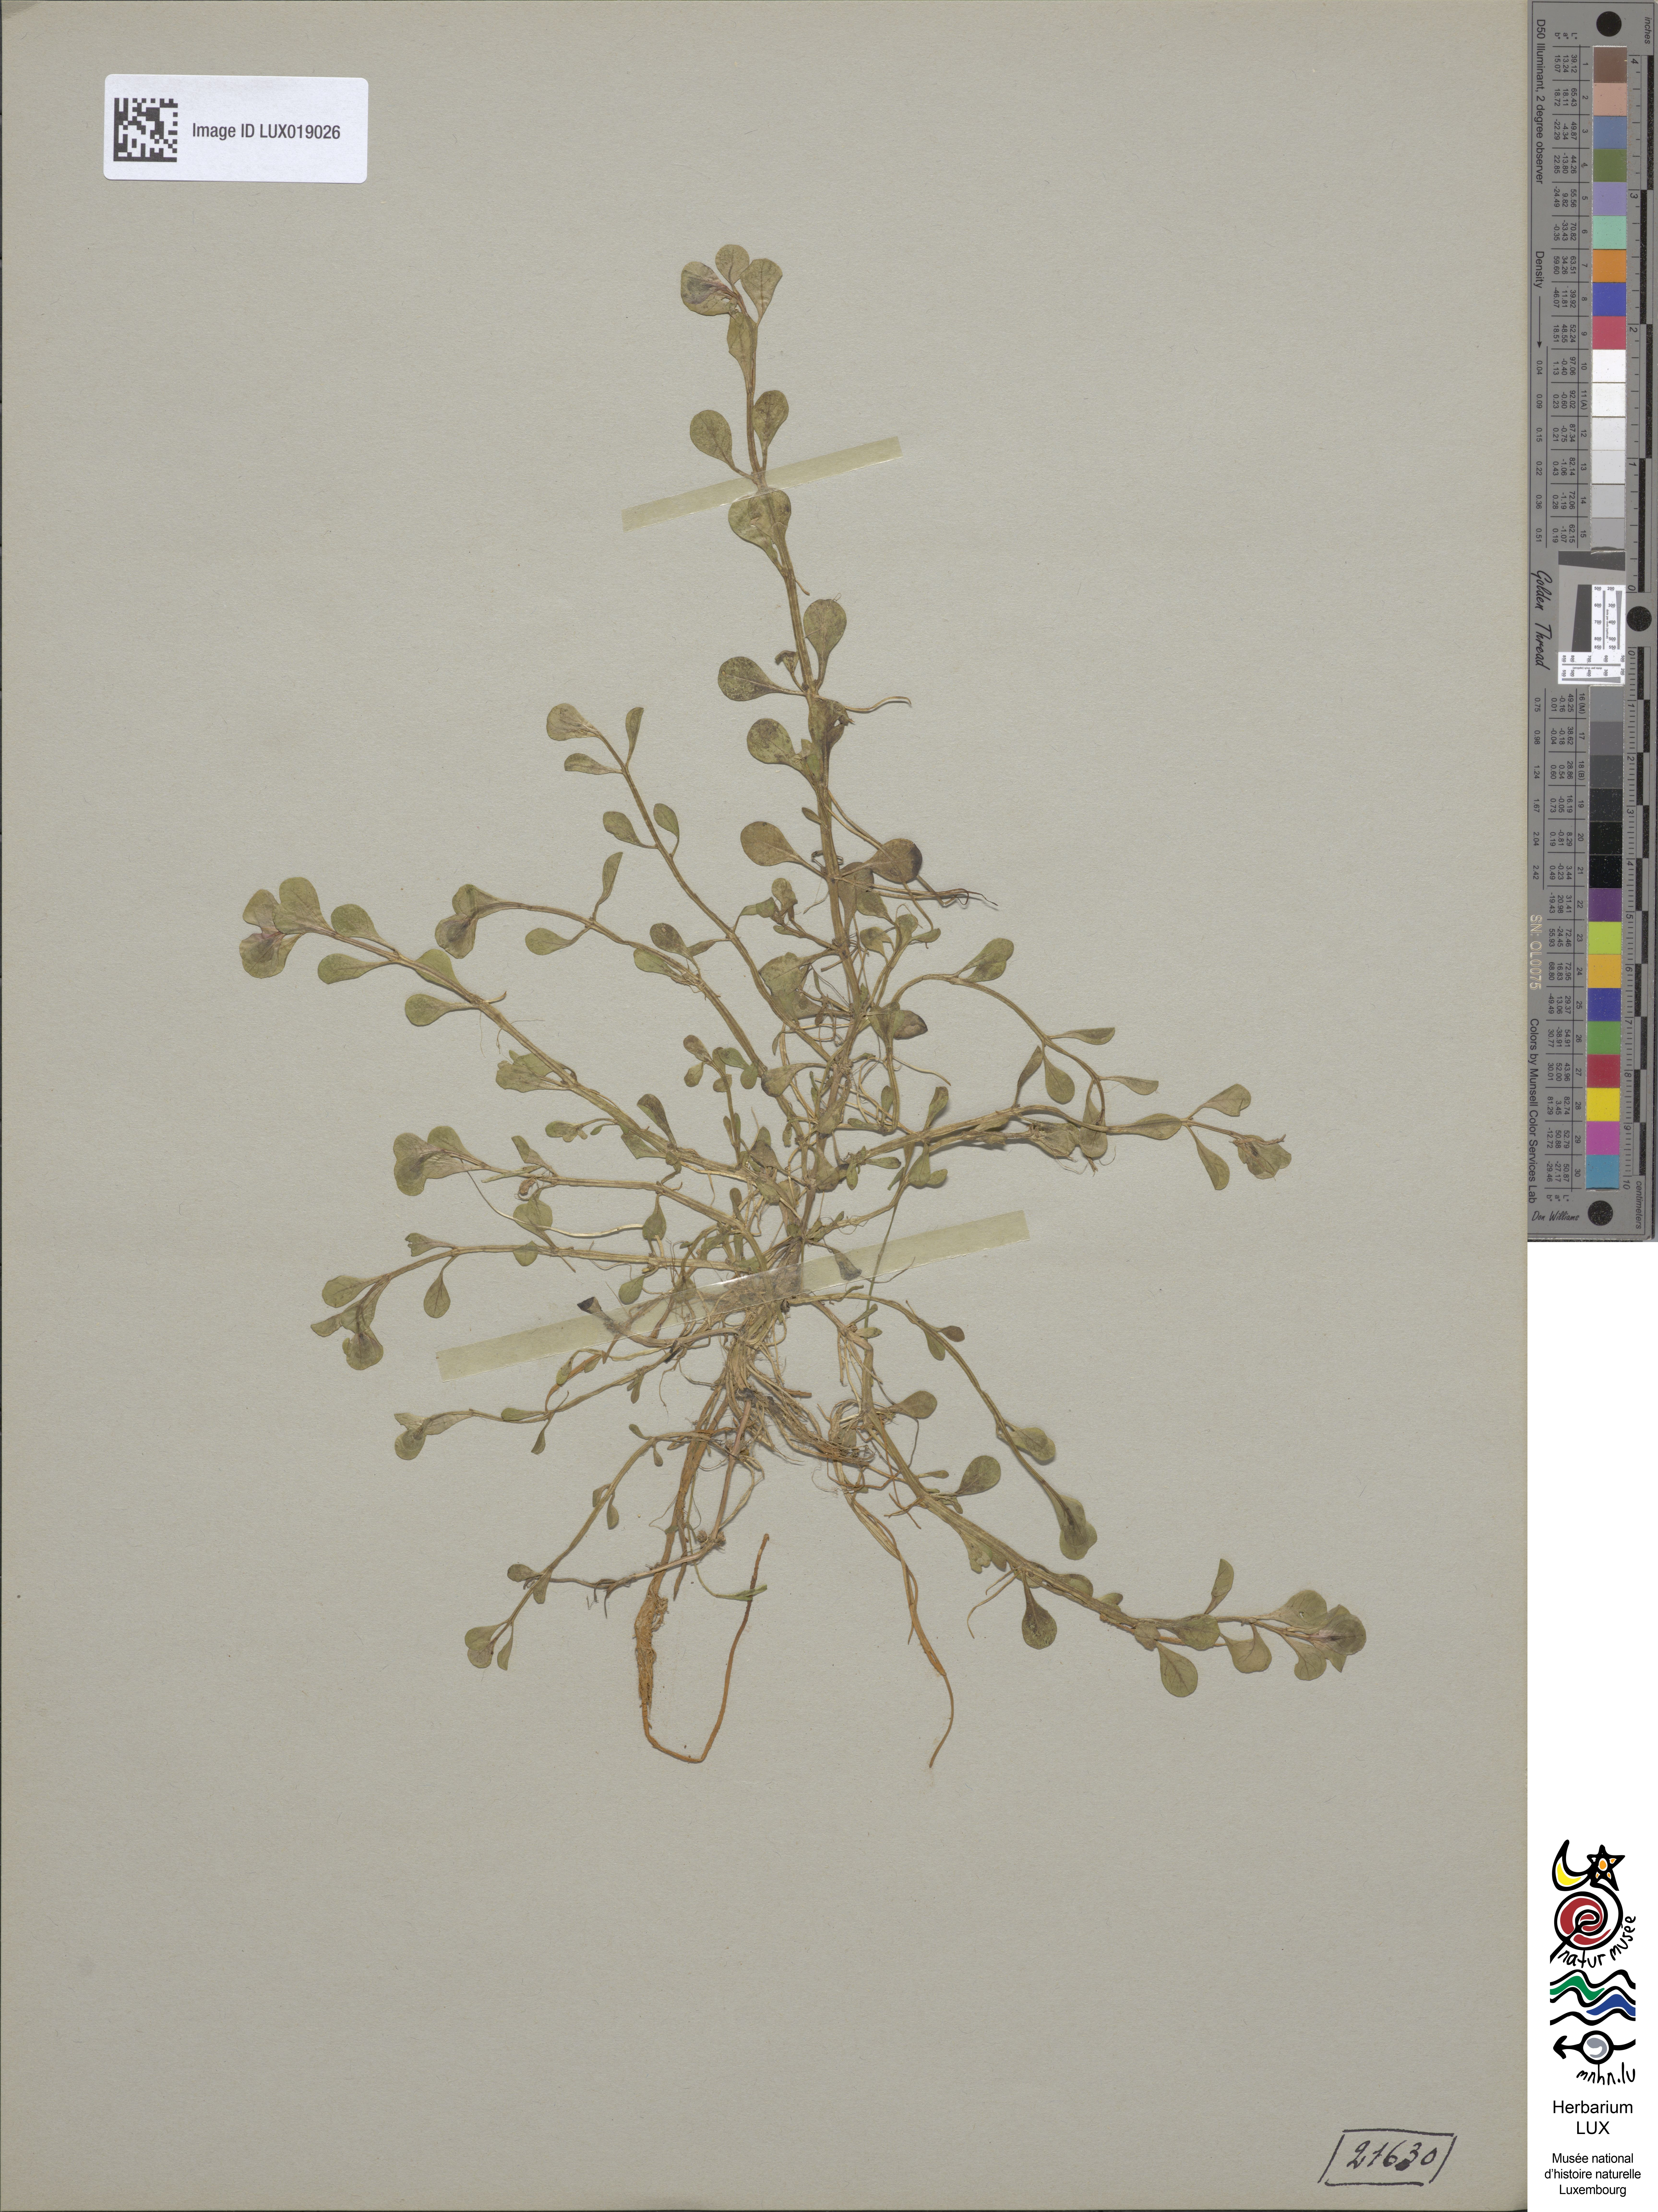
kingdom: Plantae
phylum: Tracheophyta
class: Magnoliopsida
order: Myrtales
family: Lythraceae
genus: Lythrum
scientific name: Lythrum portula
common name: Water purslane
